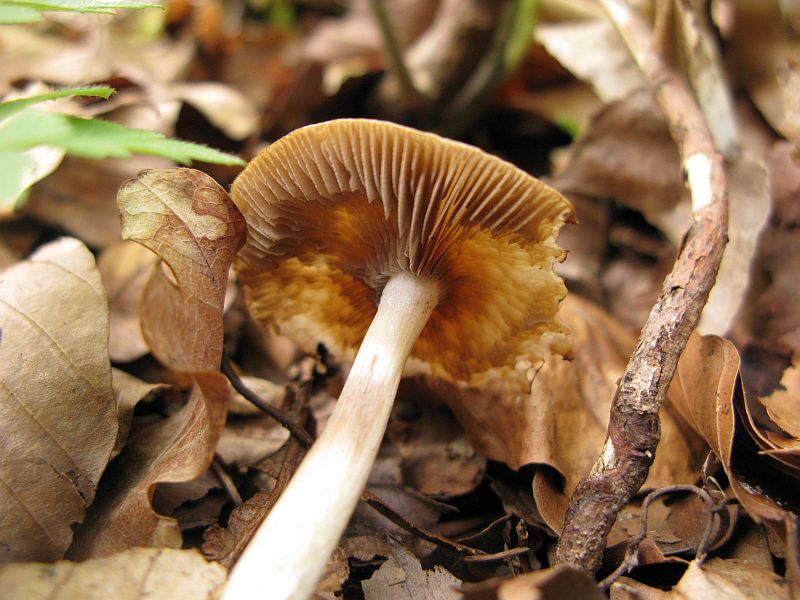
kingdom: Fungi
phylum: Basidiomycota
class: Agaricomycetes
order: Agaricales
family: Psathyrellaceae
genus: Psathyrella
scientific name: Psathyrella spadiceogrisea
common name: gråbrun mørkhat
